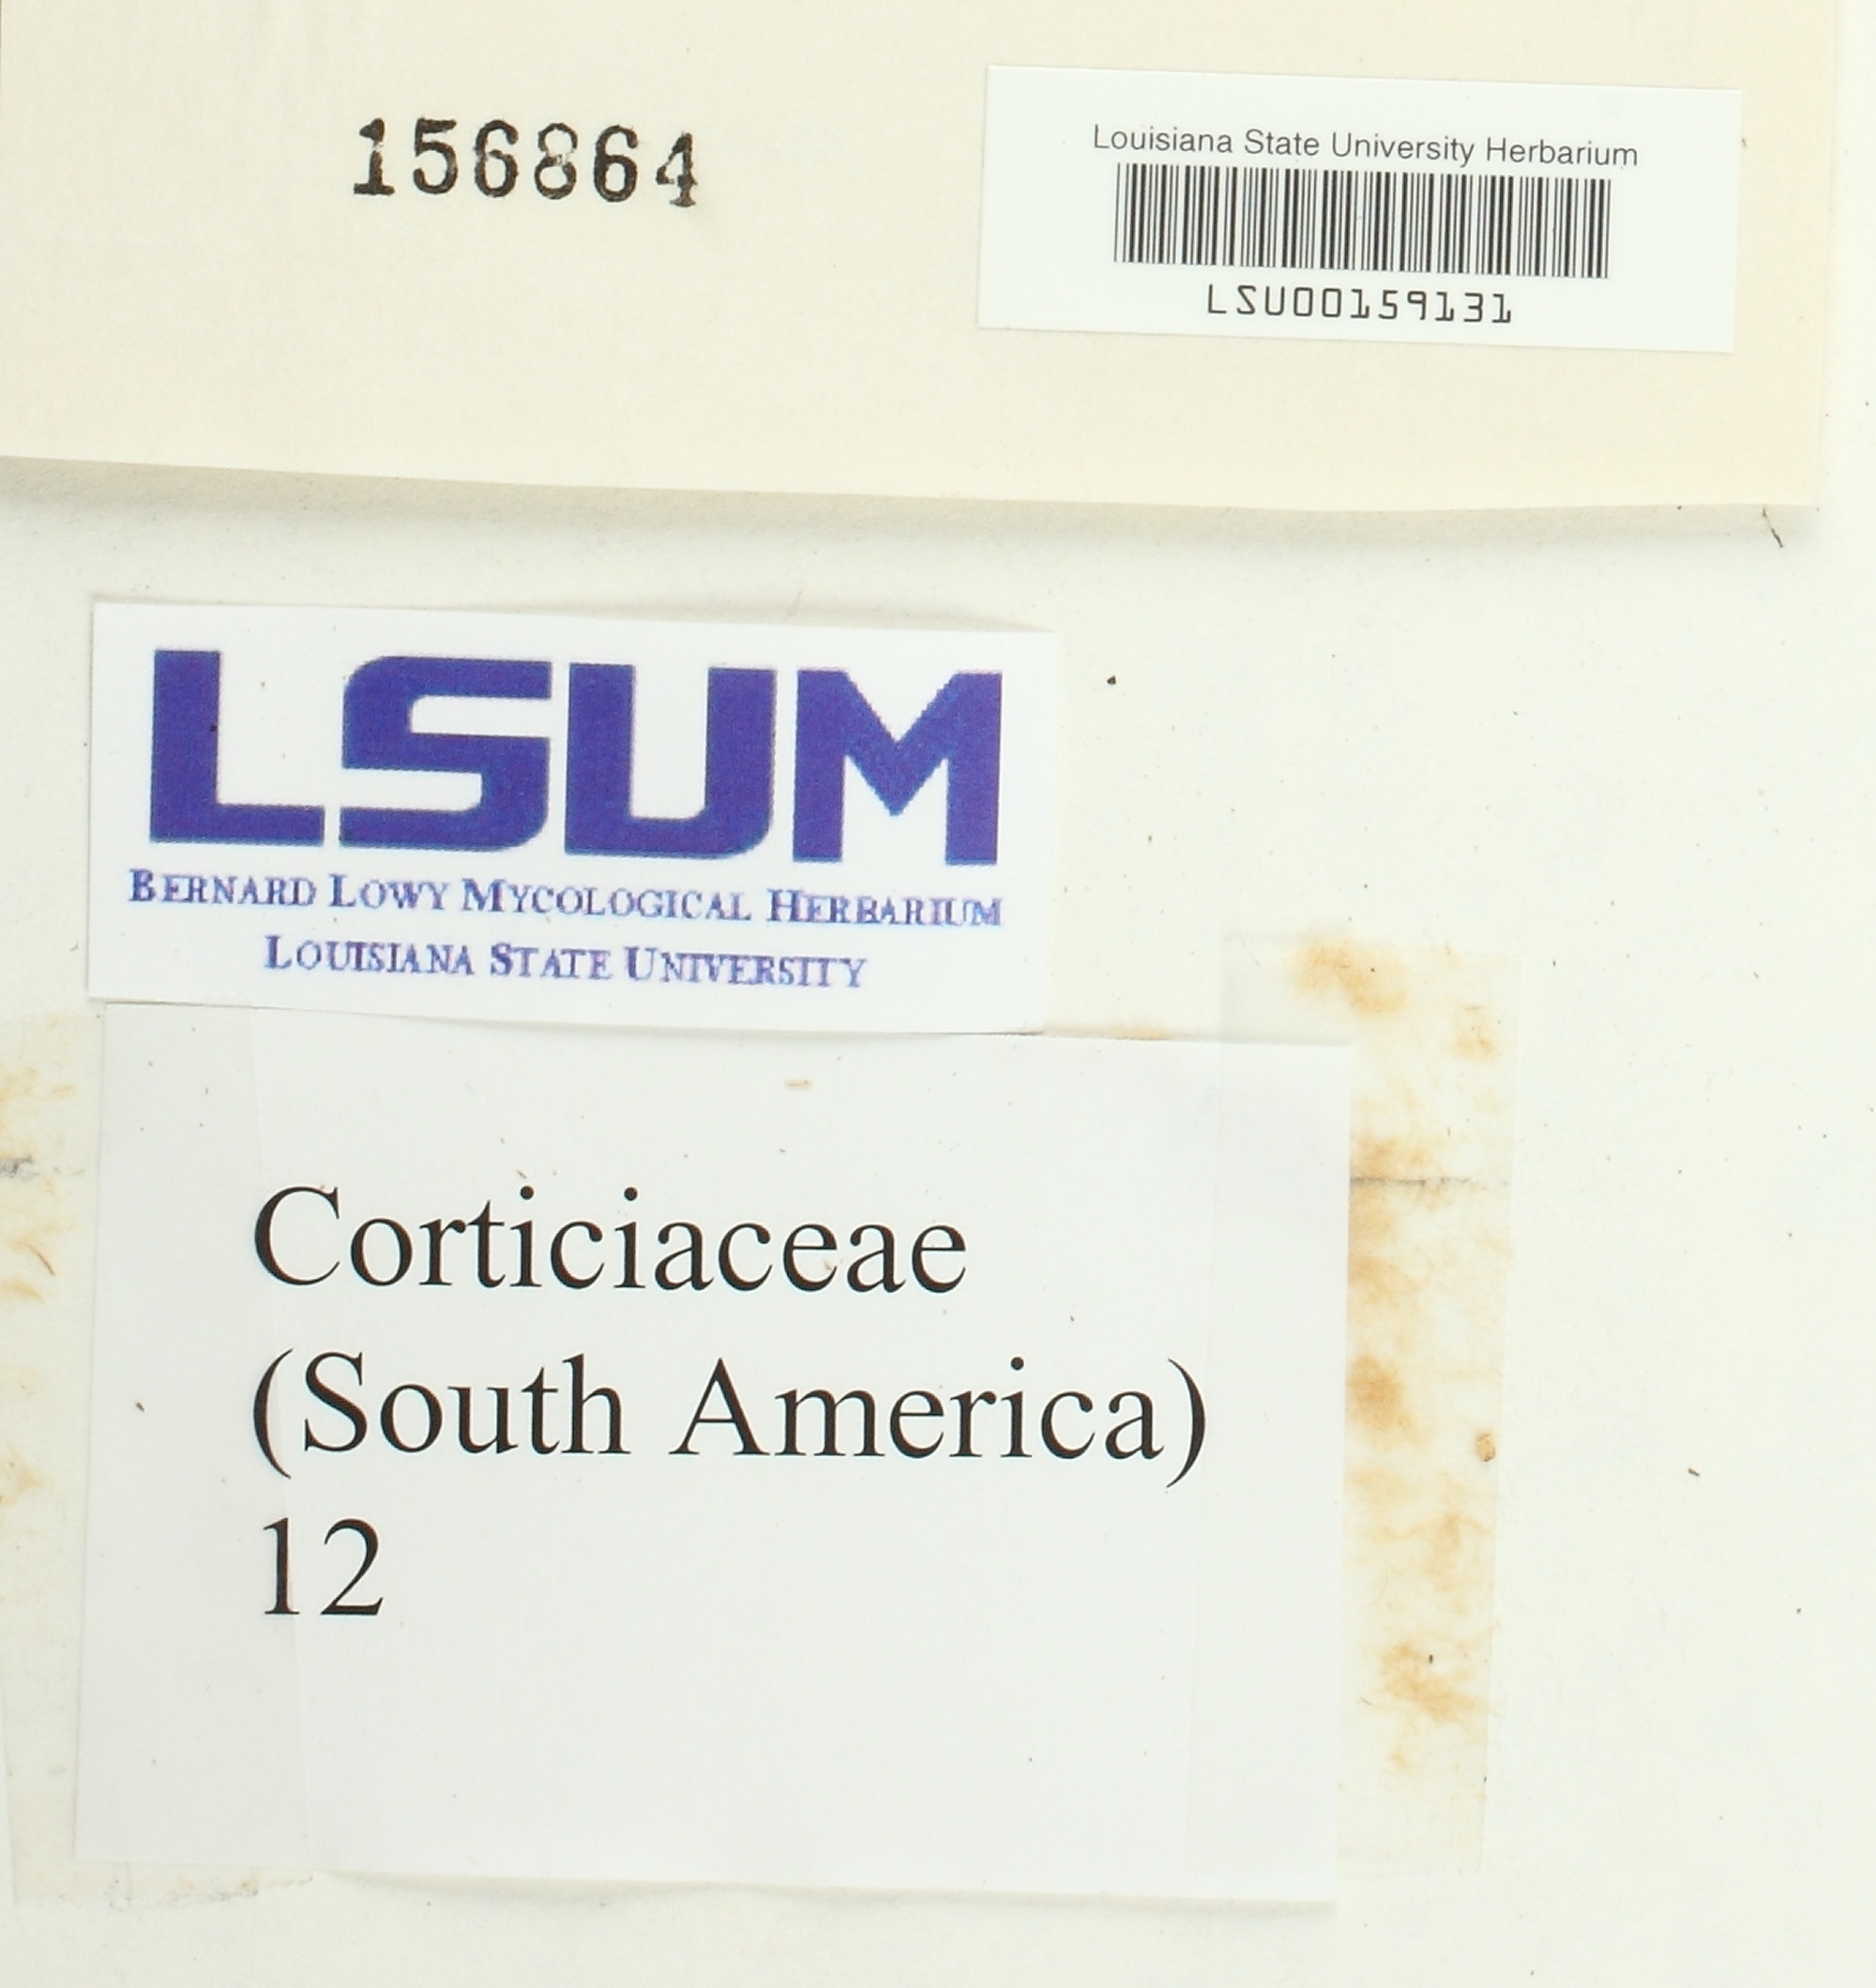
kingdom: Fungi
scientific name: Fungi
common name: Fungi
